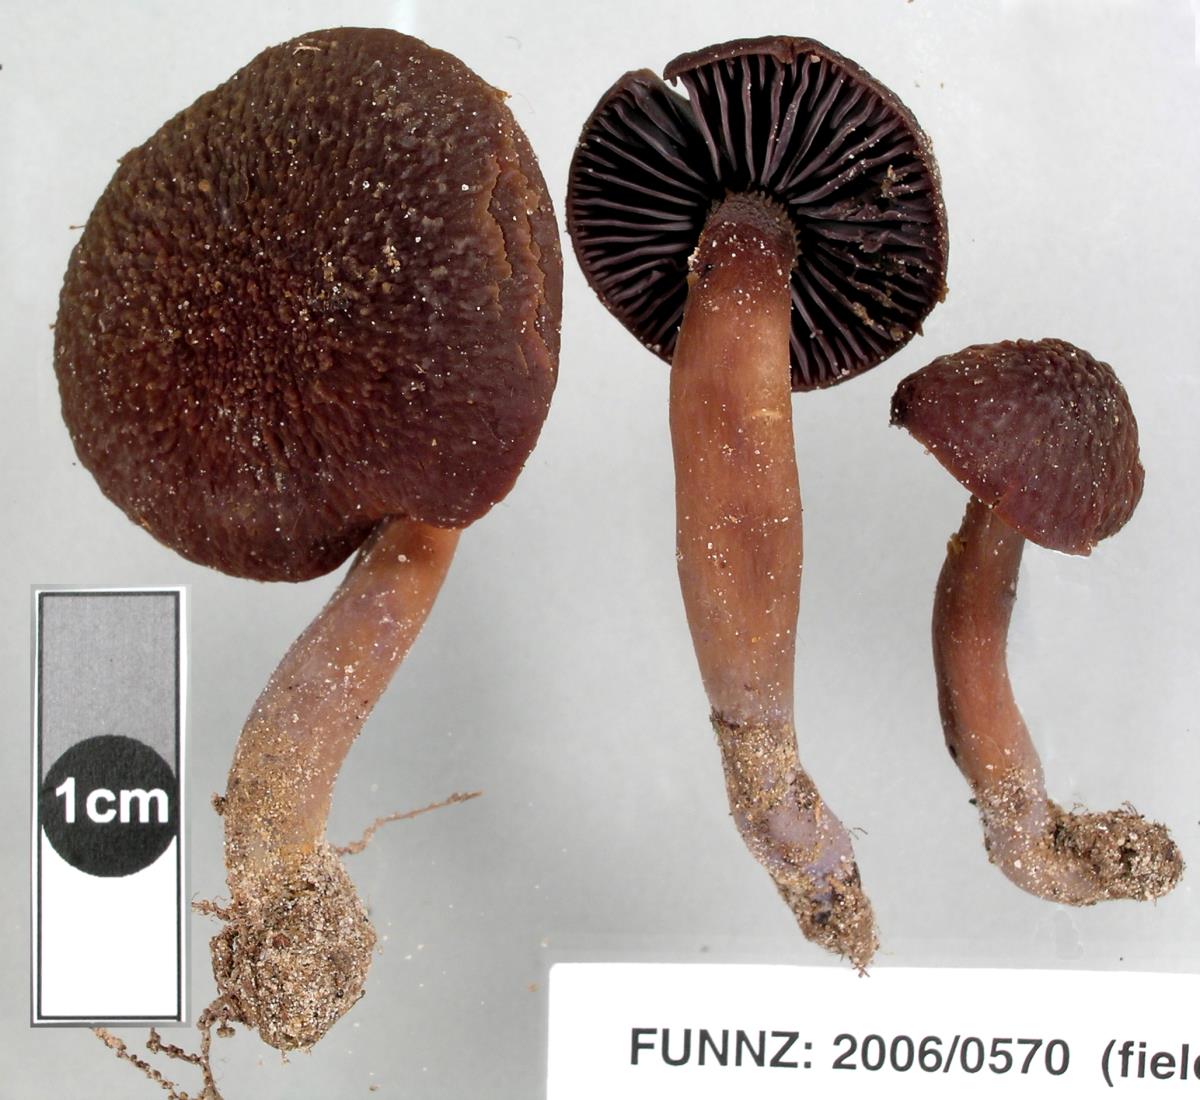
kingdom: Fungi
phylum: Basidiomycota
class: Agaricomycetes
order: Agaricales
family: Hygrophoraceae
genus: Aeruginospora
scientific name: Aeruginospora furfuracea
